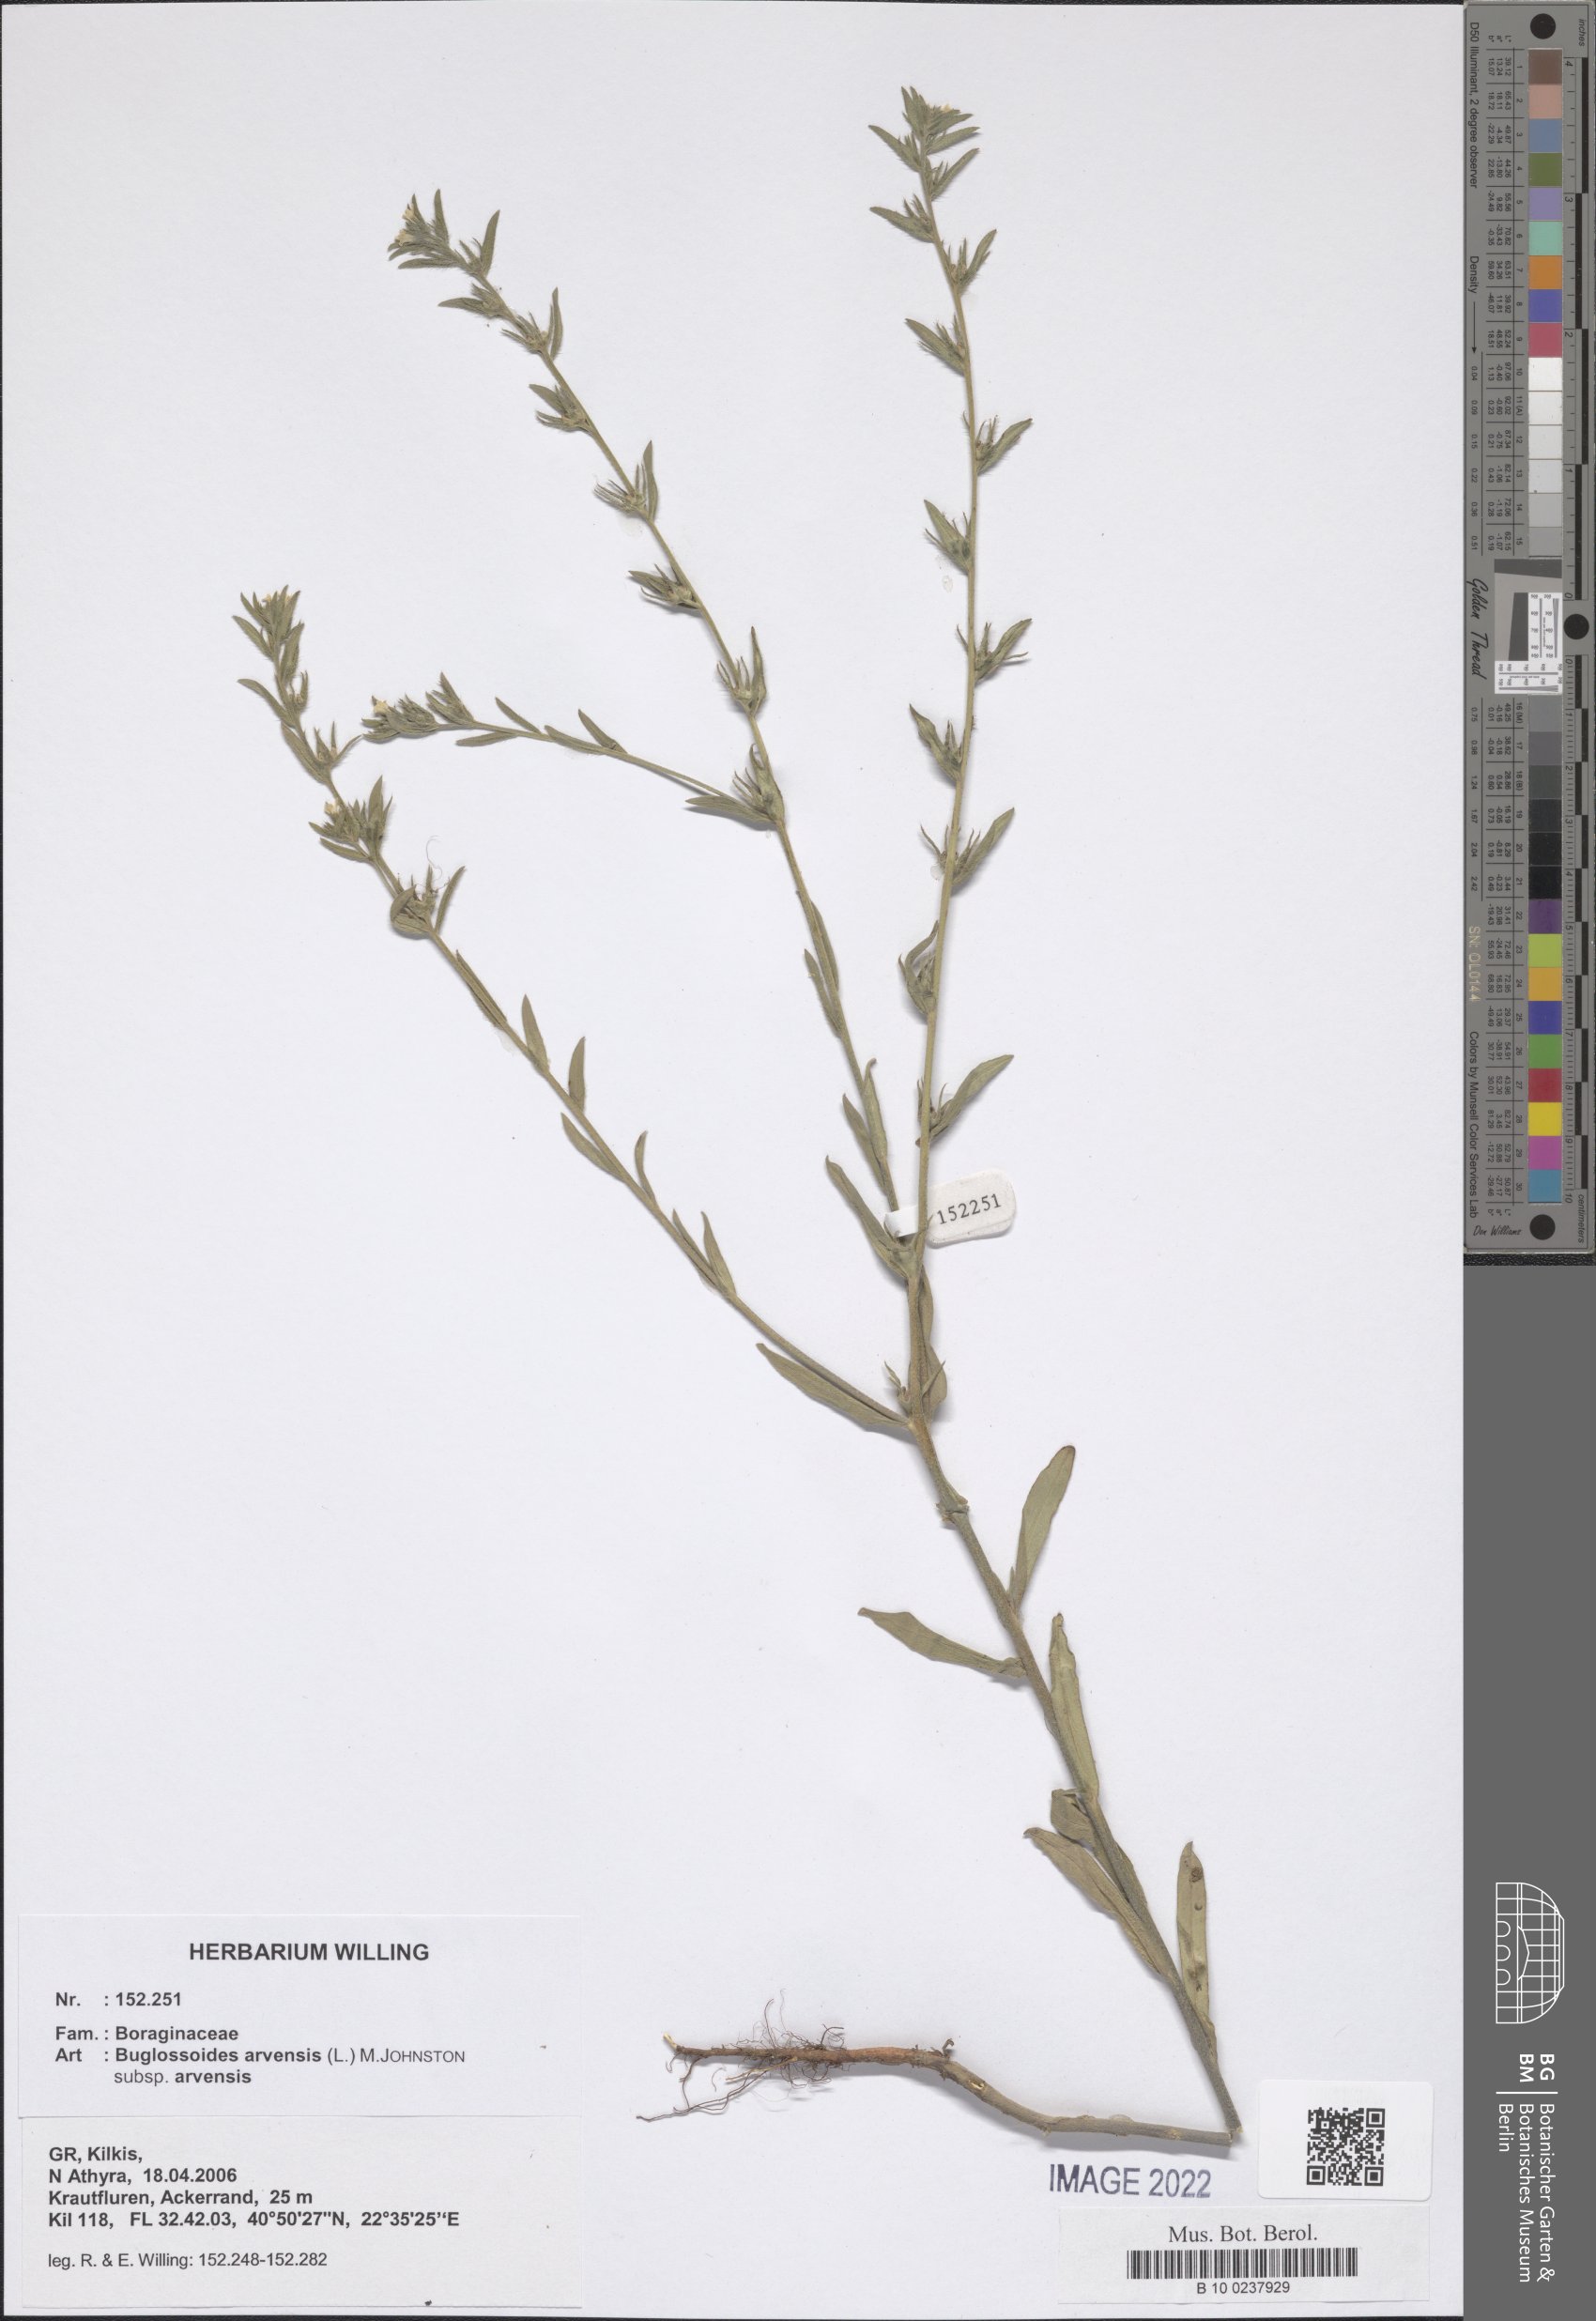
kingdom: Plantae
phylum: Tracheophyta
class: Magnoliopsida
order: Boraginales
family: Boraginaceae
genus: Buglossoides
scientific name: Buglossoides arvensis
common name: Corn gromwell
